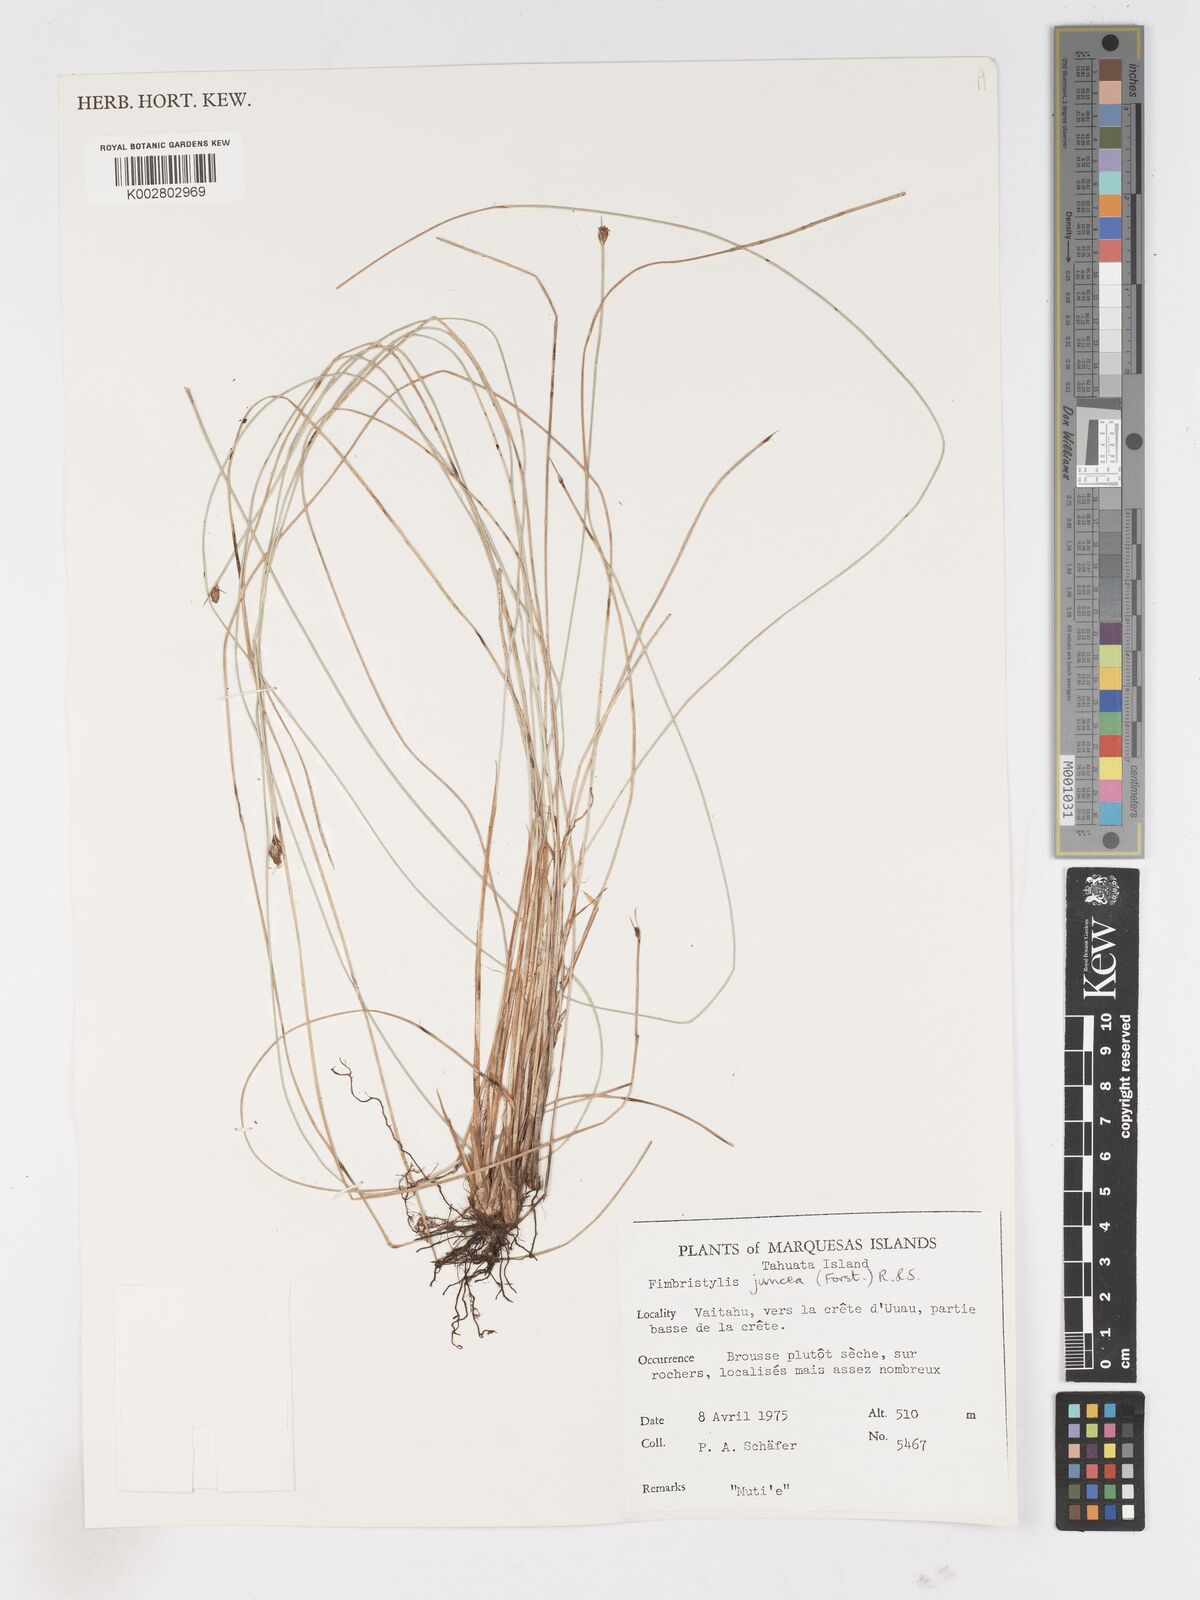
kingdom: Plantae
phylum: Tracheophyta
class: Liliopsida
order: Poales
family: Cyperaceae
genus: Fimbristylis
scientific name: Fimbristylis juncea
